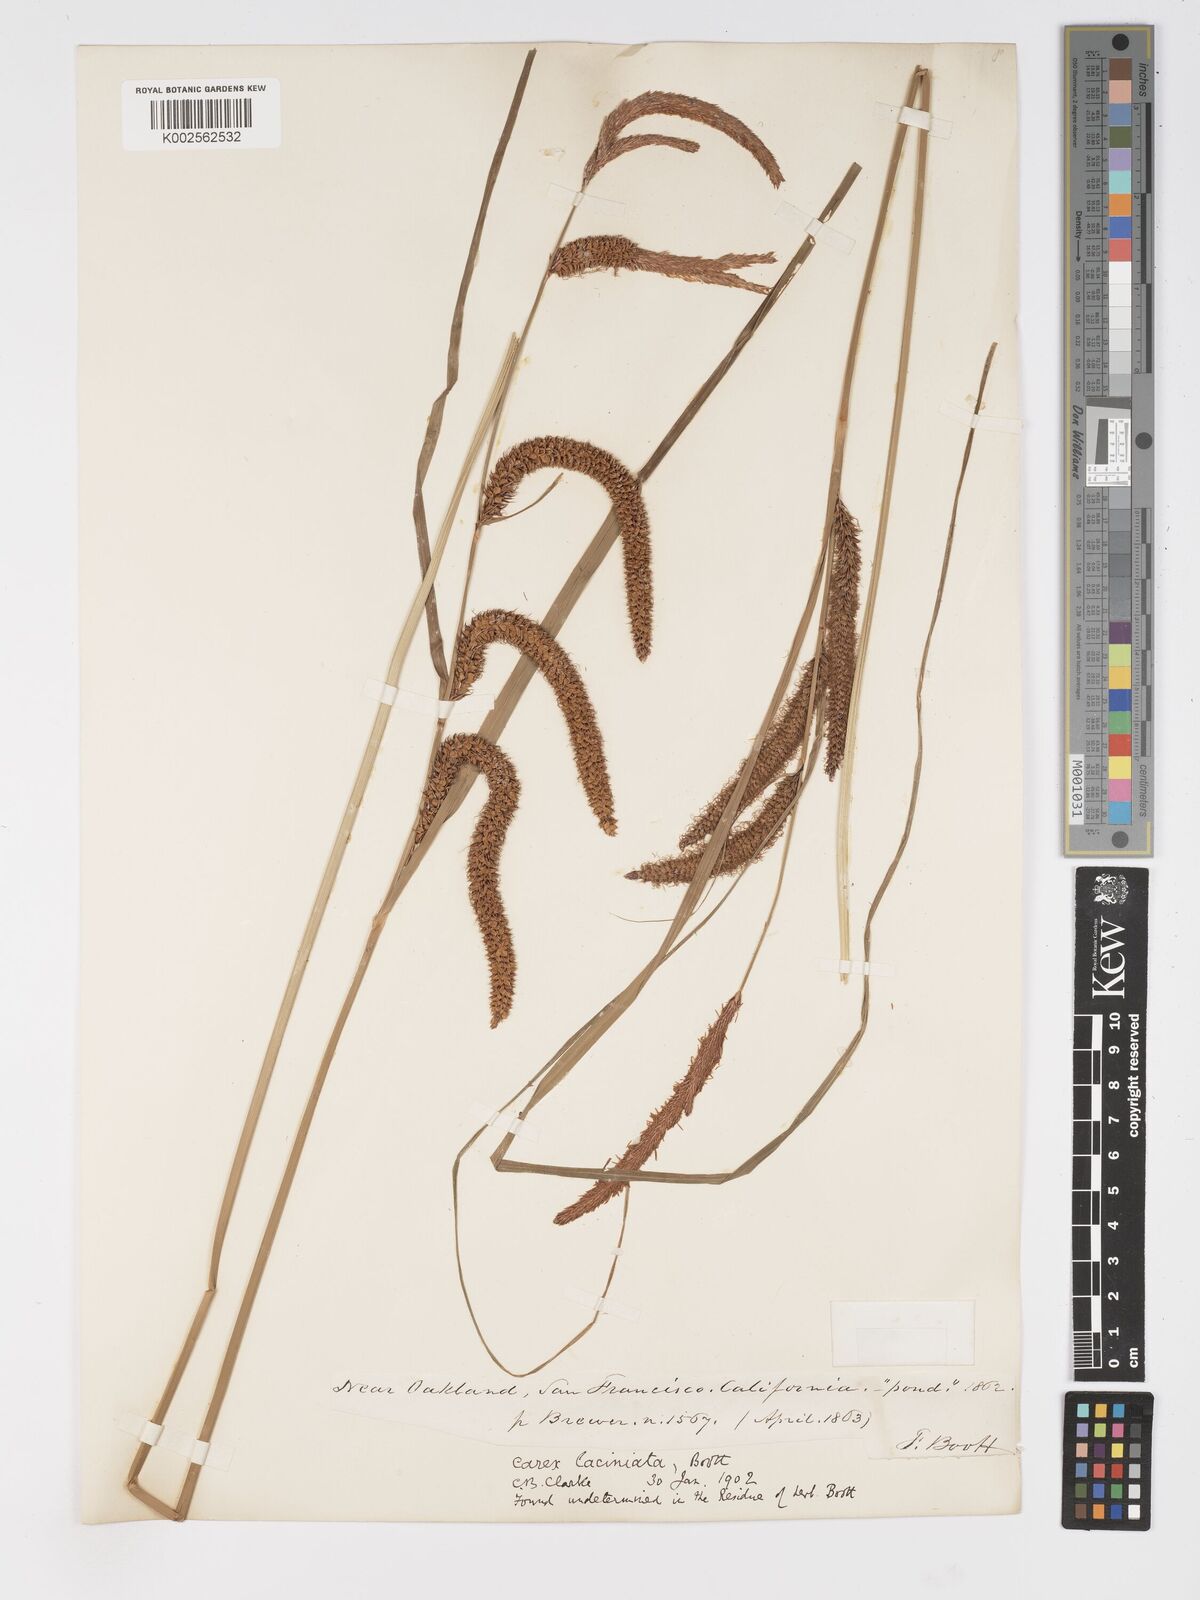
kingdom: Plantae
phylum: Tracheophyta
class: Liliopsida
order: Poales
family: Cyperaceae
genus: Carex
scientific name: Carex barbarae
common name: Santa barbara sedge
